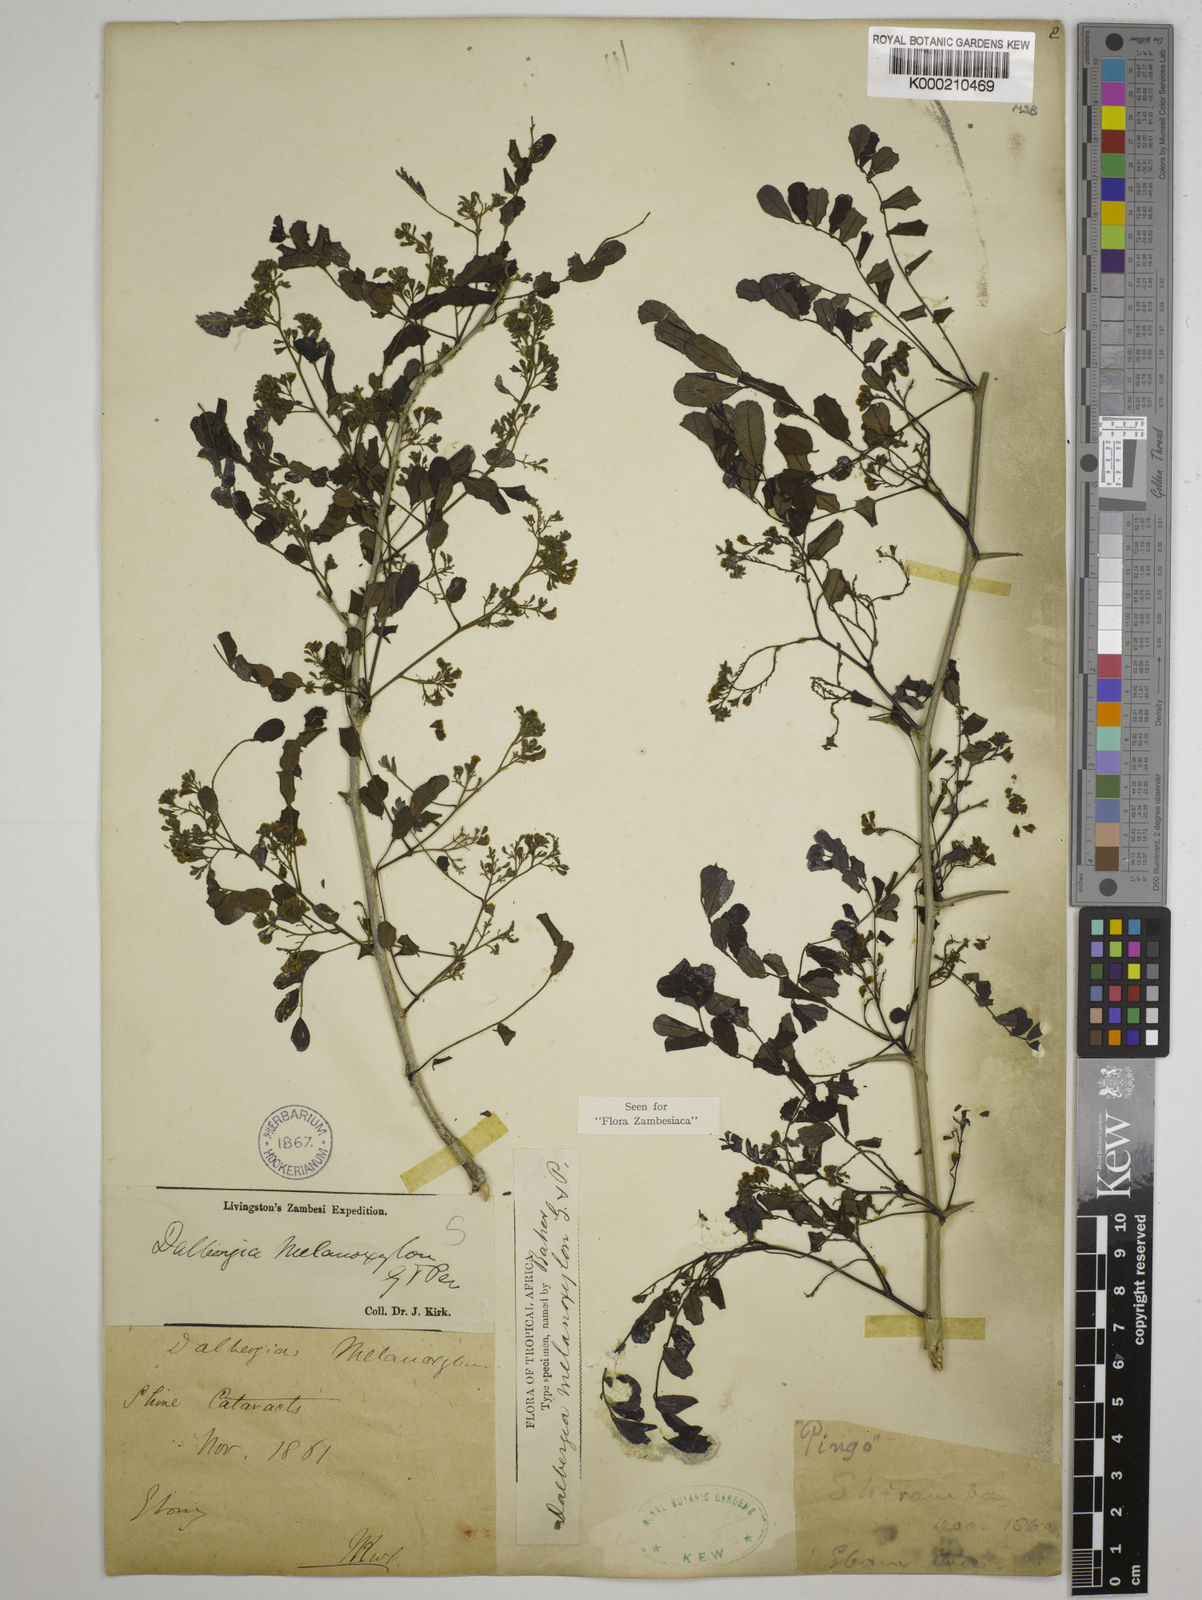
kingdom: Plantae
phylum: Tracheophyta
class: Magnoliopsida
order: Fabales
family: Fabaceae
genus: Dalbergia
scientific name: Dalbergia melanoxylon
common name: African blackwood
